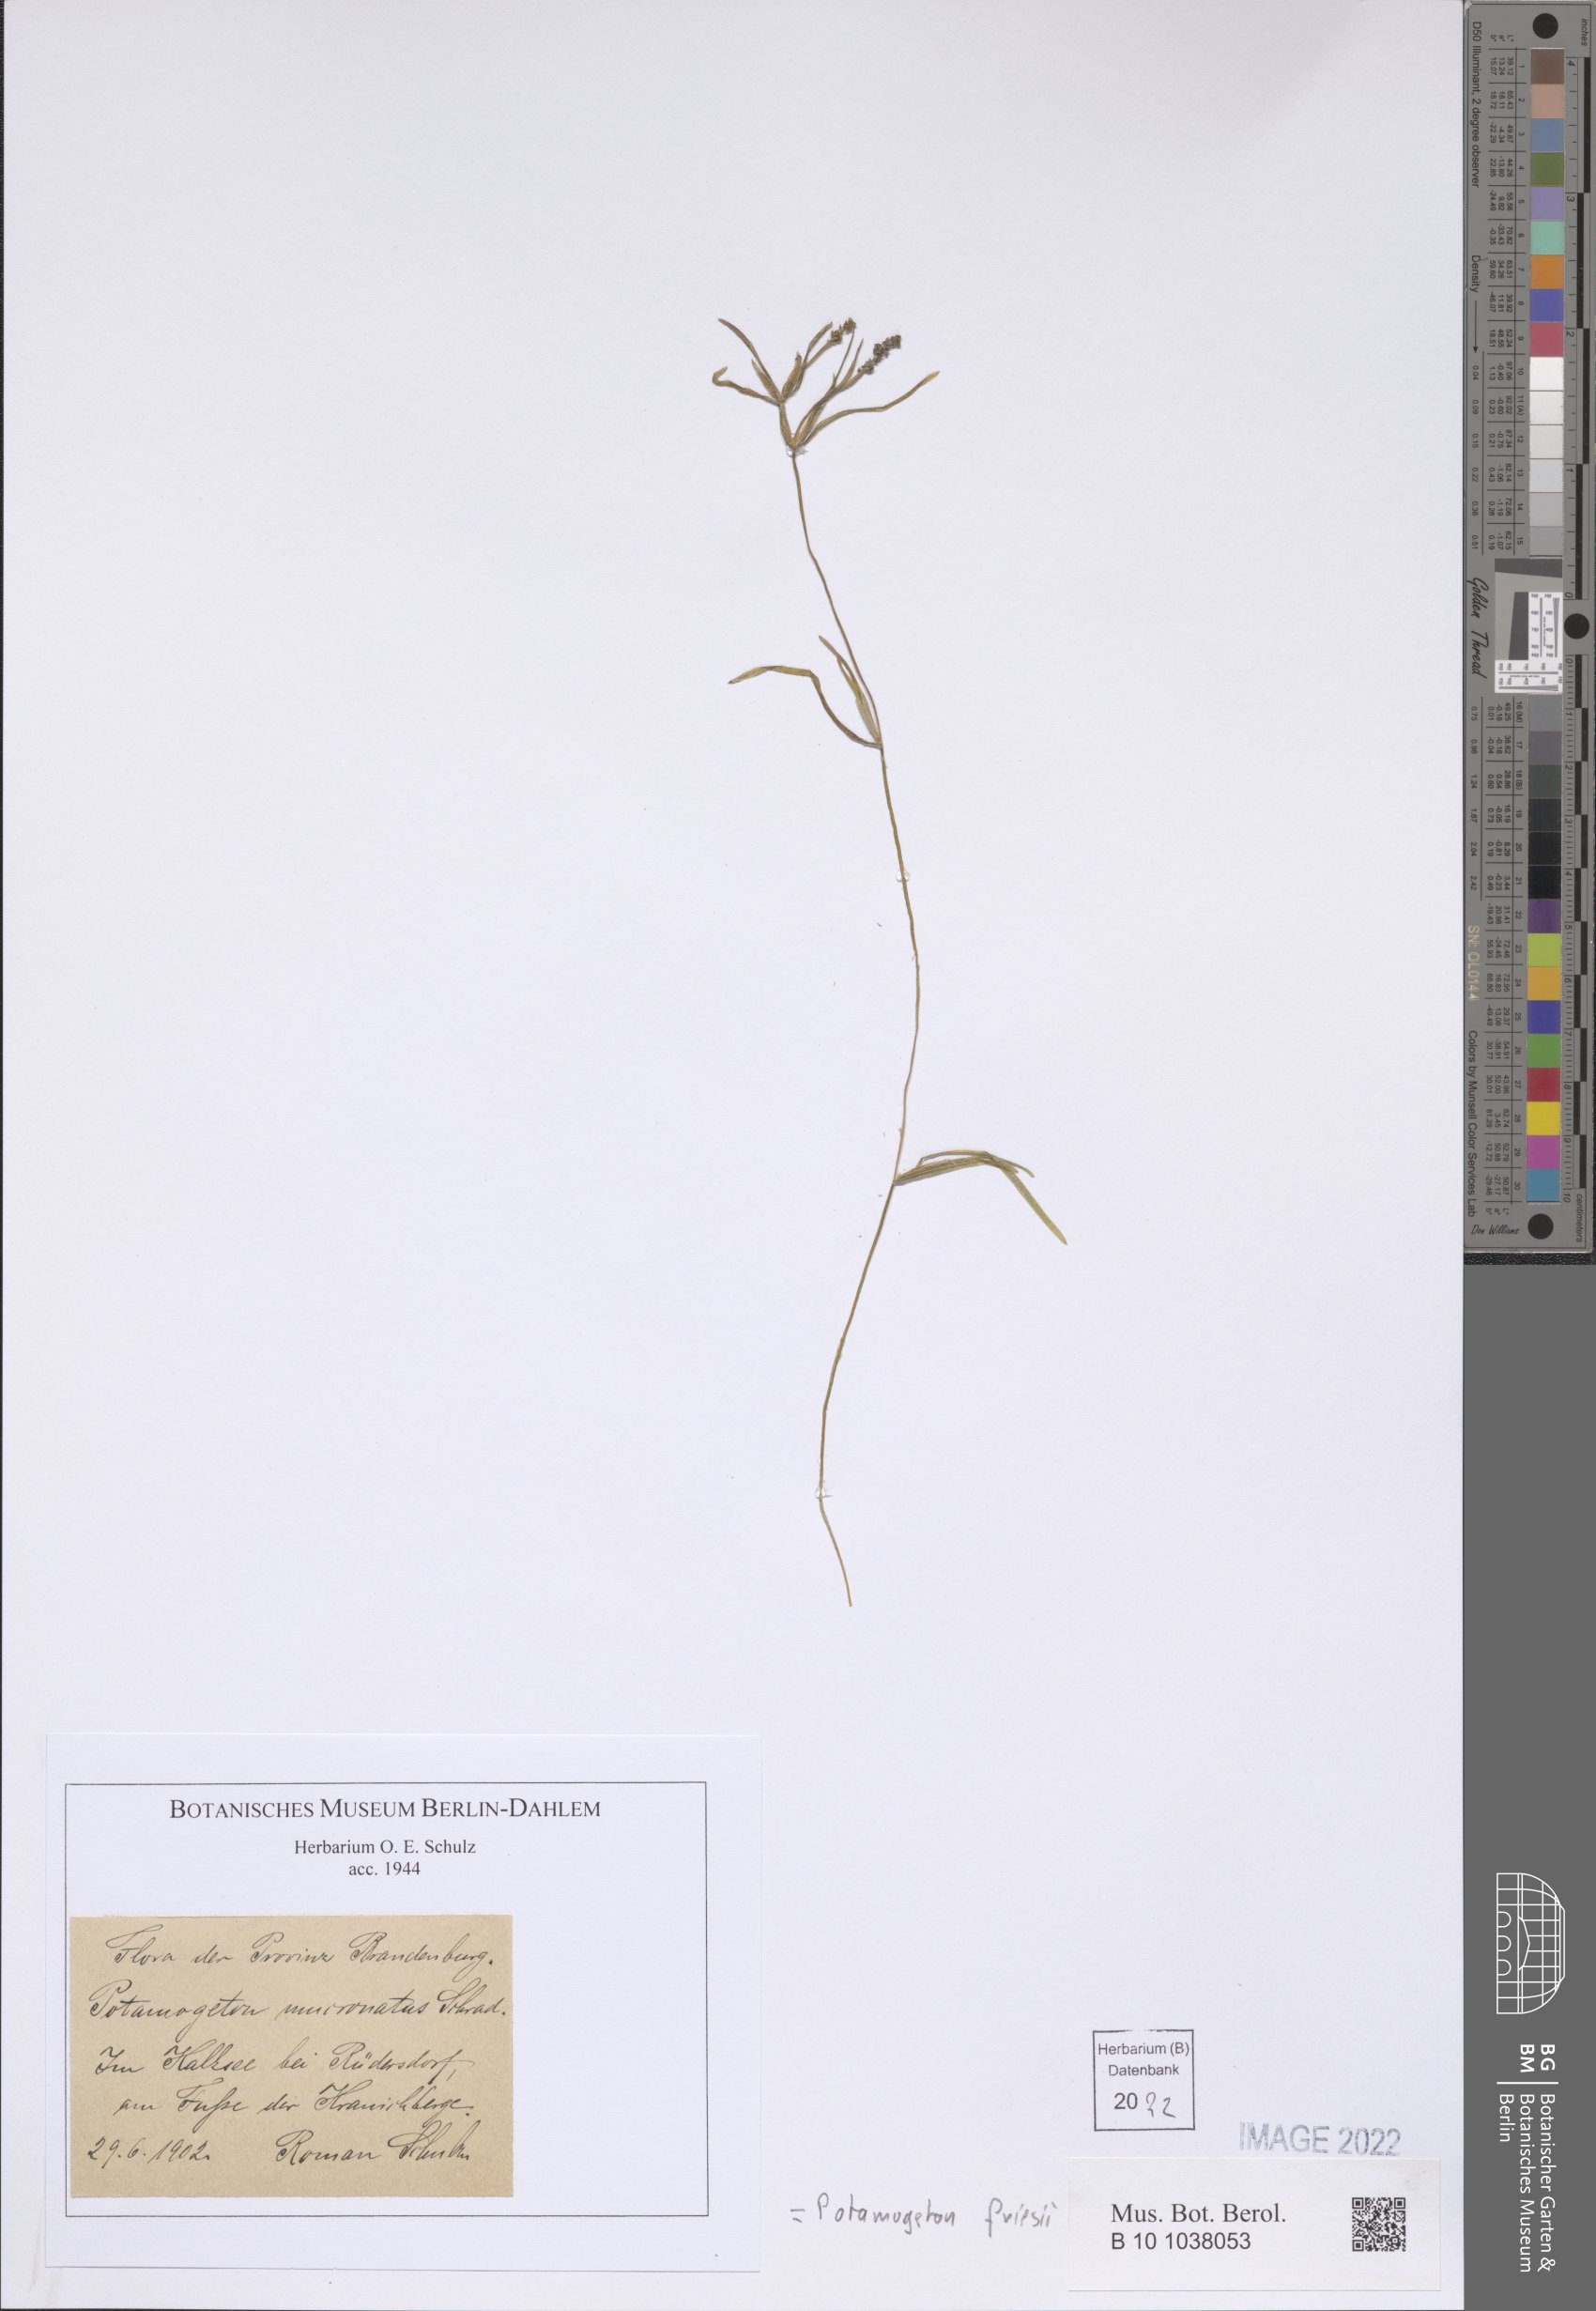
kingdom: Plantae
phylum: Tracheophyta
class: Liliopsida
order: Alismatales
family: Potamogetonaceae
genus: Potamogeton
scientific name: Potamogeton friesii
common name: Flat-stalked pondweed
